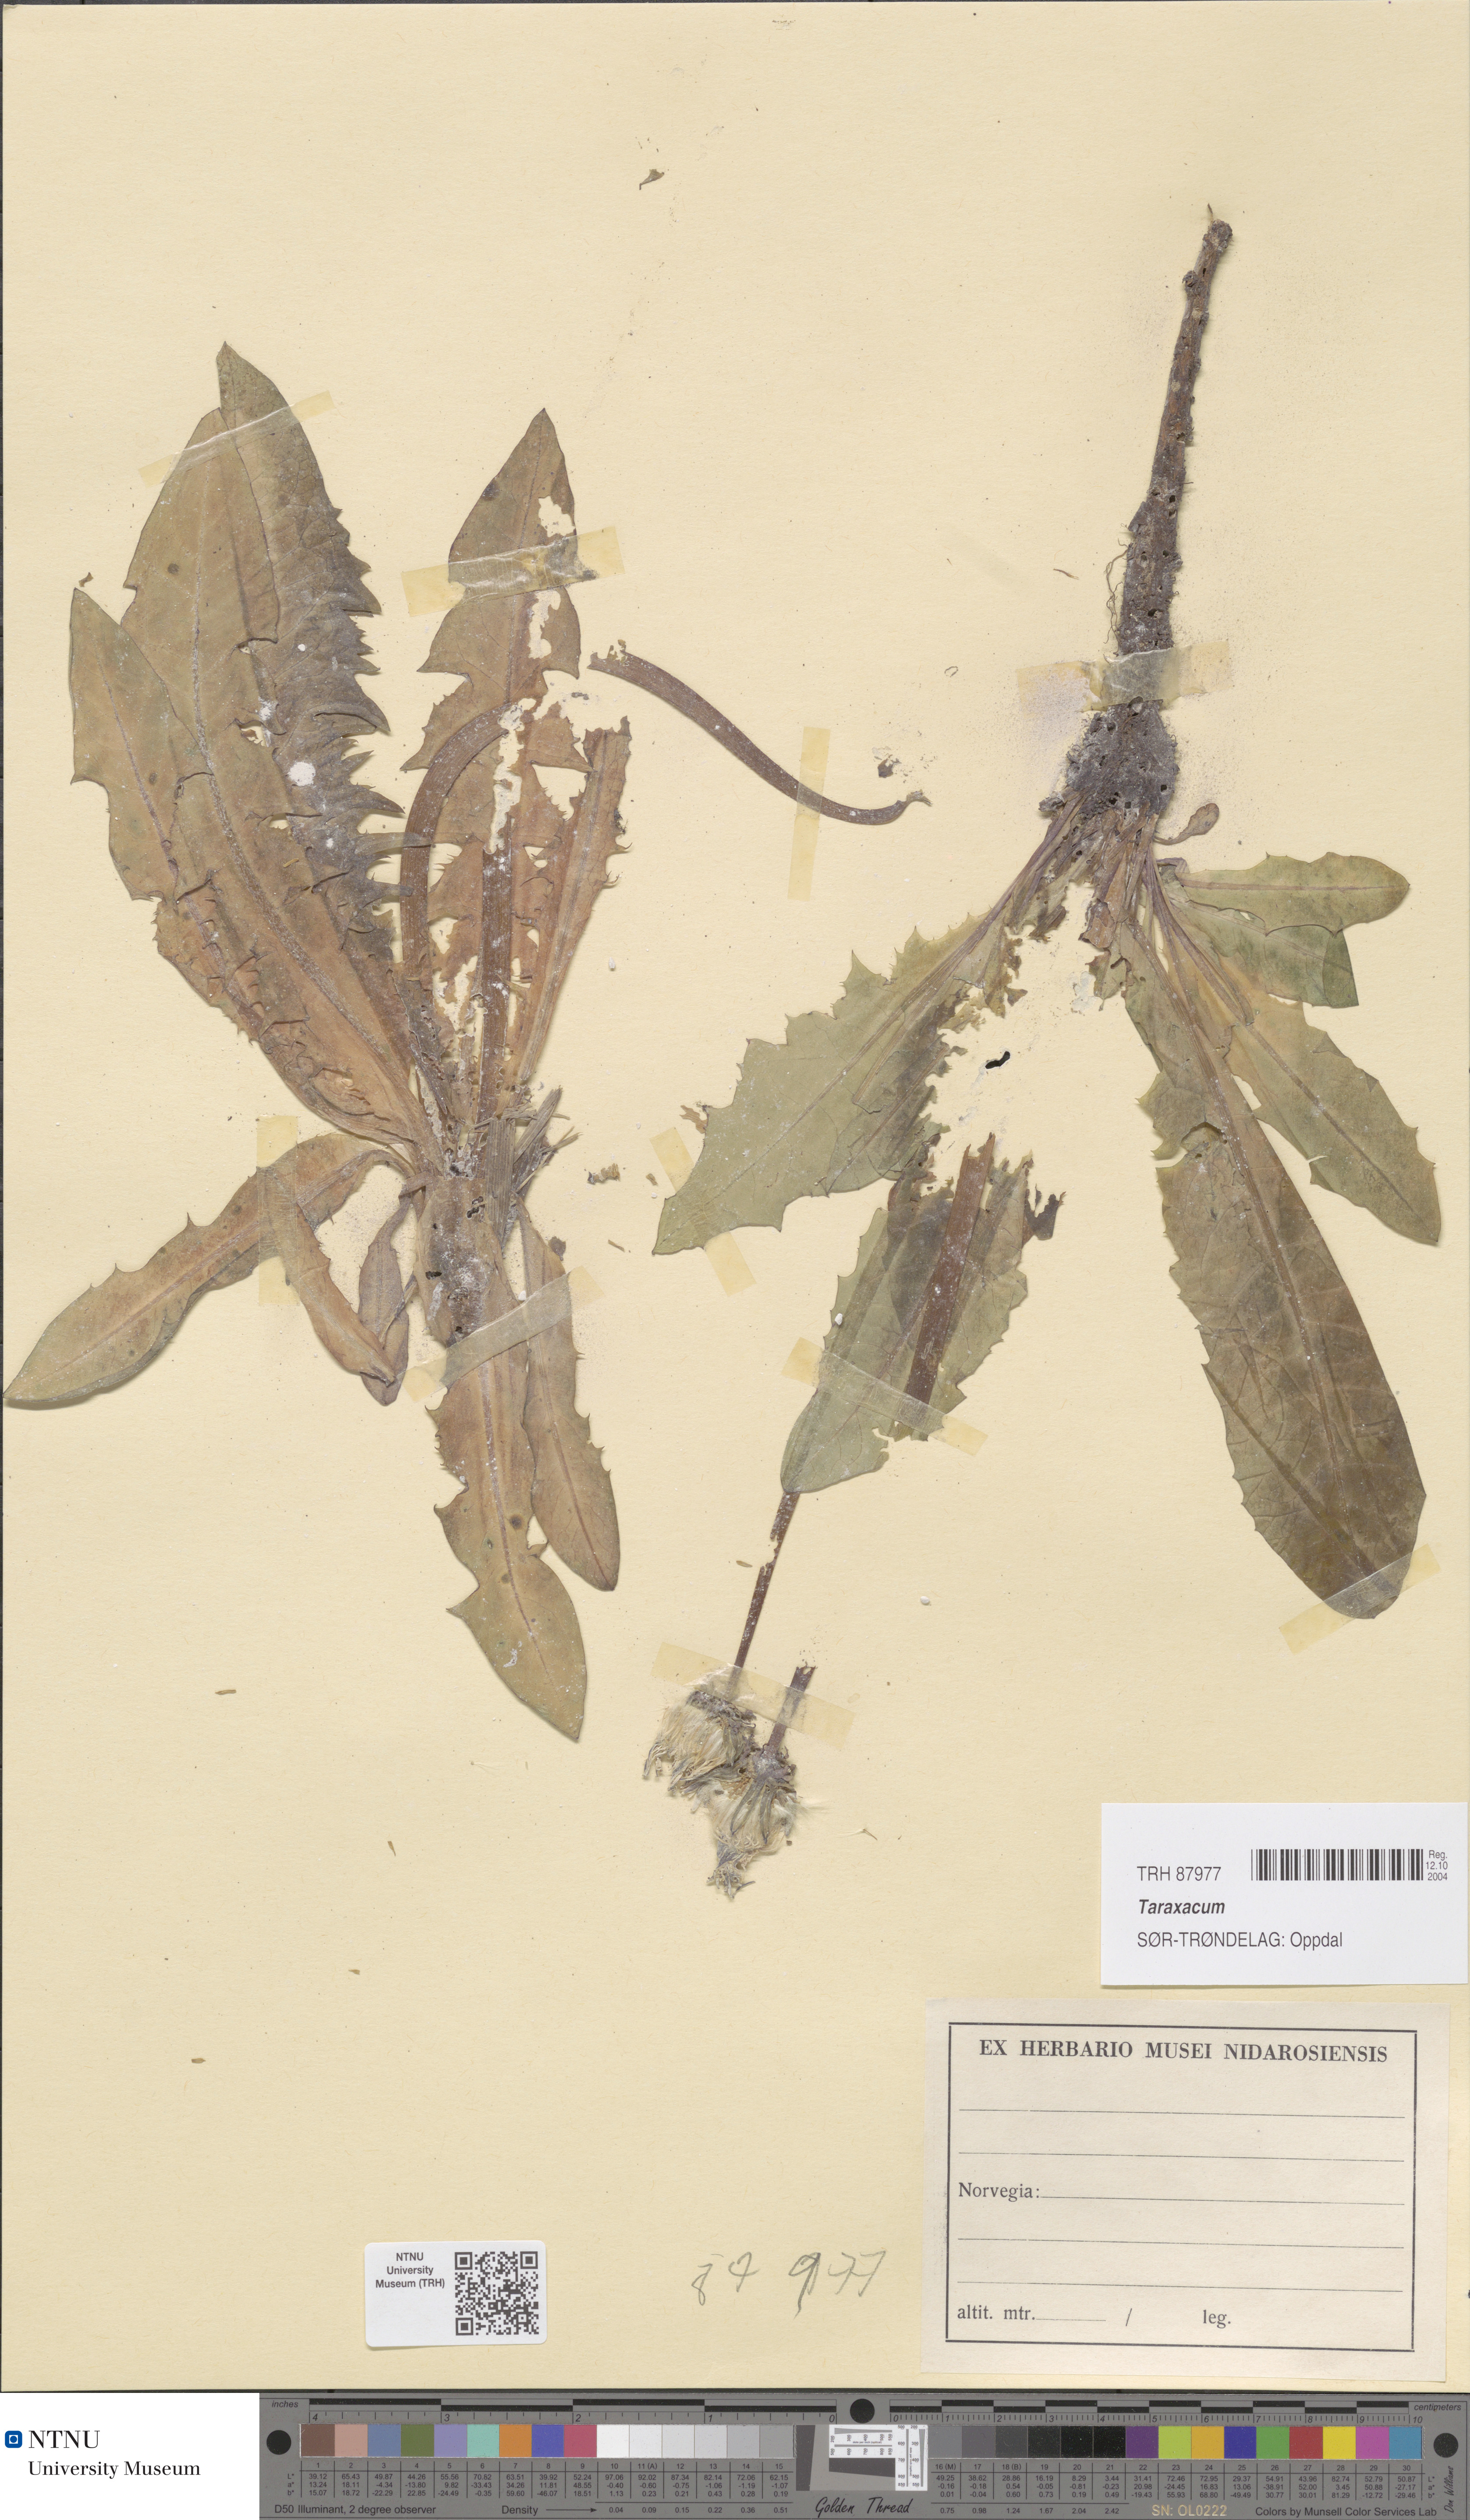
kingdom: Plantae
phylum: Tracheophyta
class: Magnoliopsida
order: Asterales
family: Asteraceae
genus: Taraxacum
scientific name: Taraxacum
